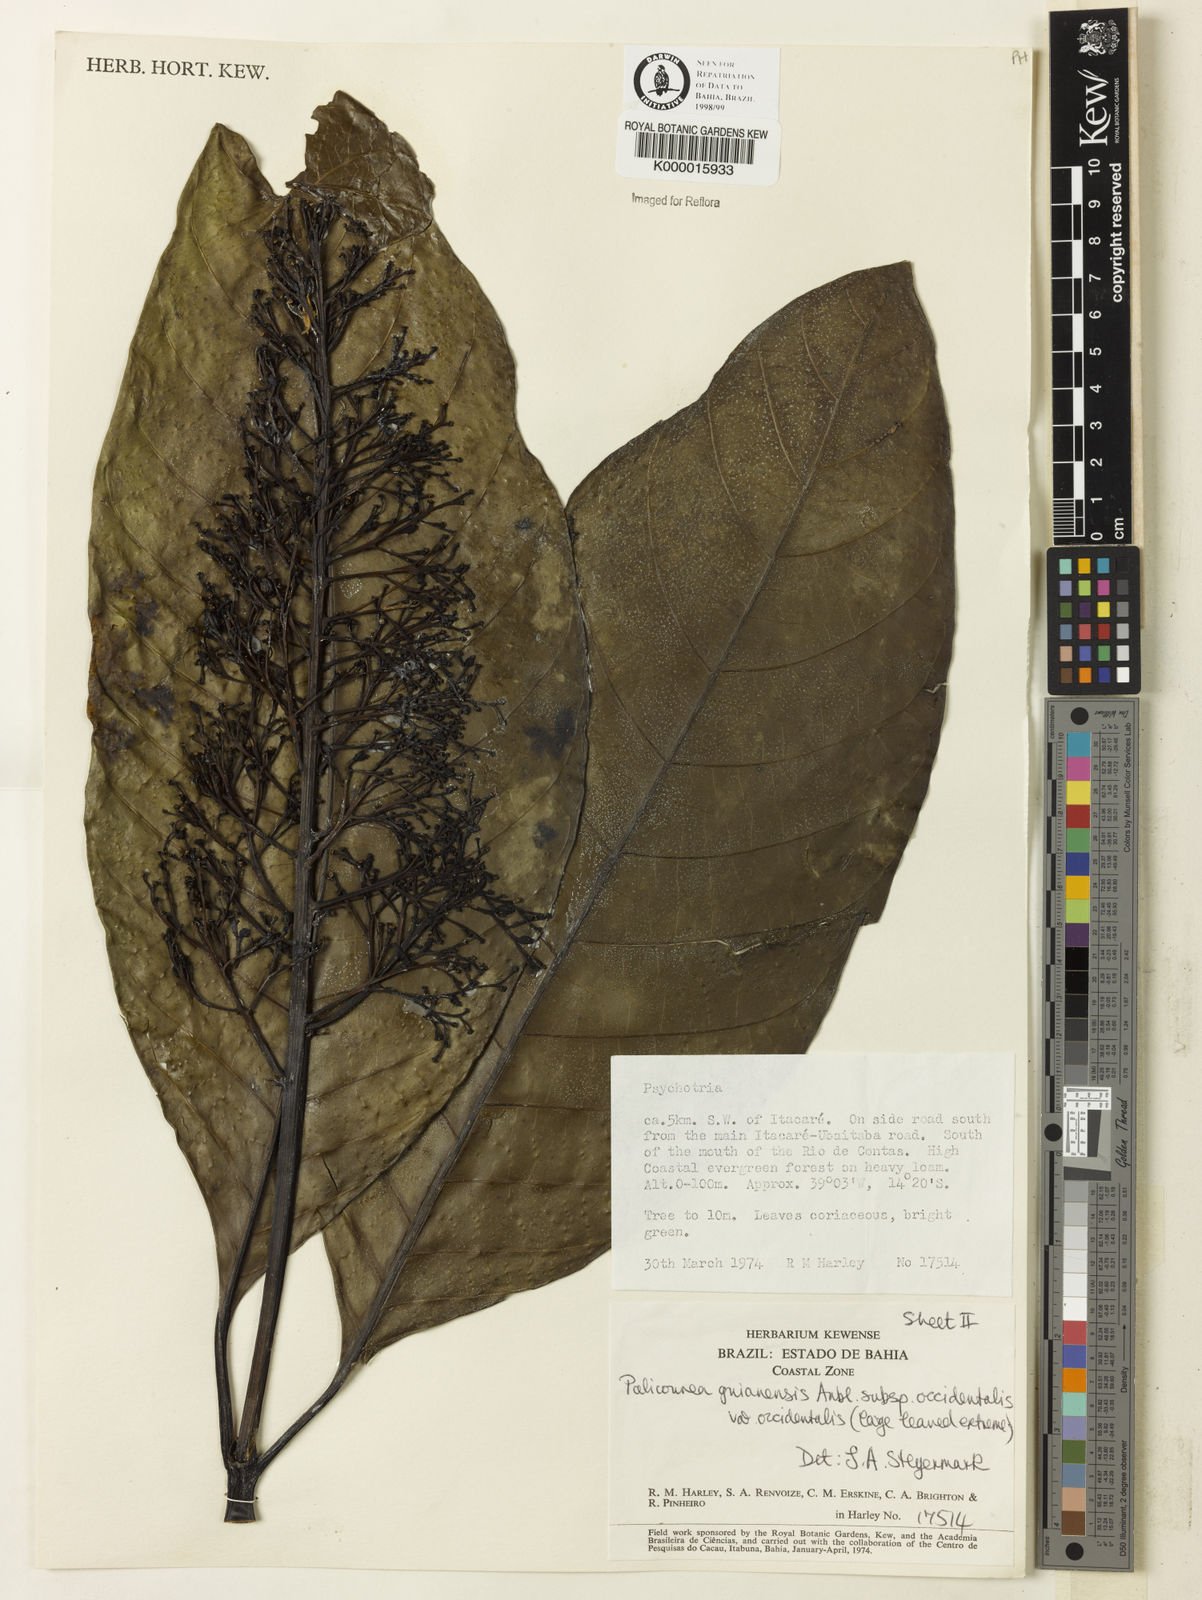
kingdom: Plantae
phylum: Tracheophyta
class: Magnoliopsida
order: Gentianales
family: Rubiaceae
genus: Palicourea
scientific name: Palicourea guianensis
